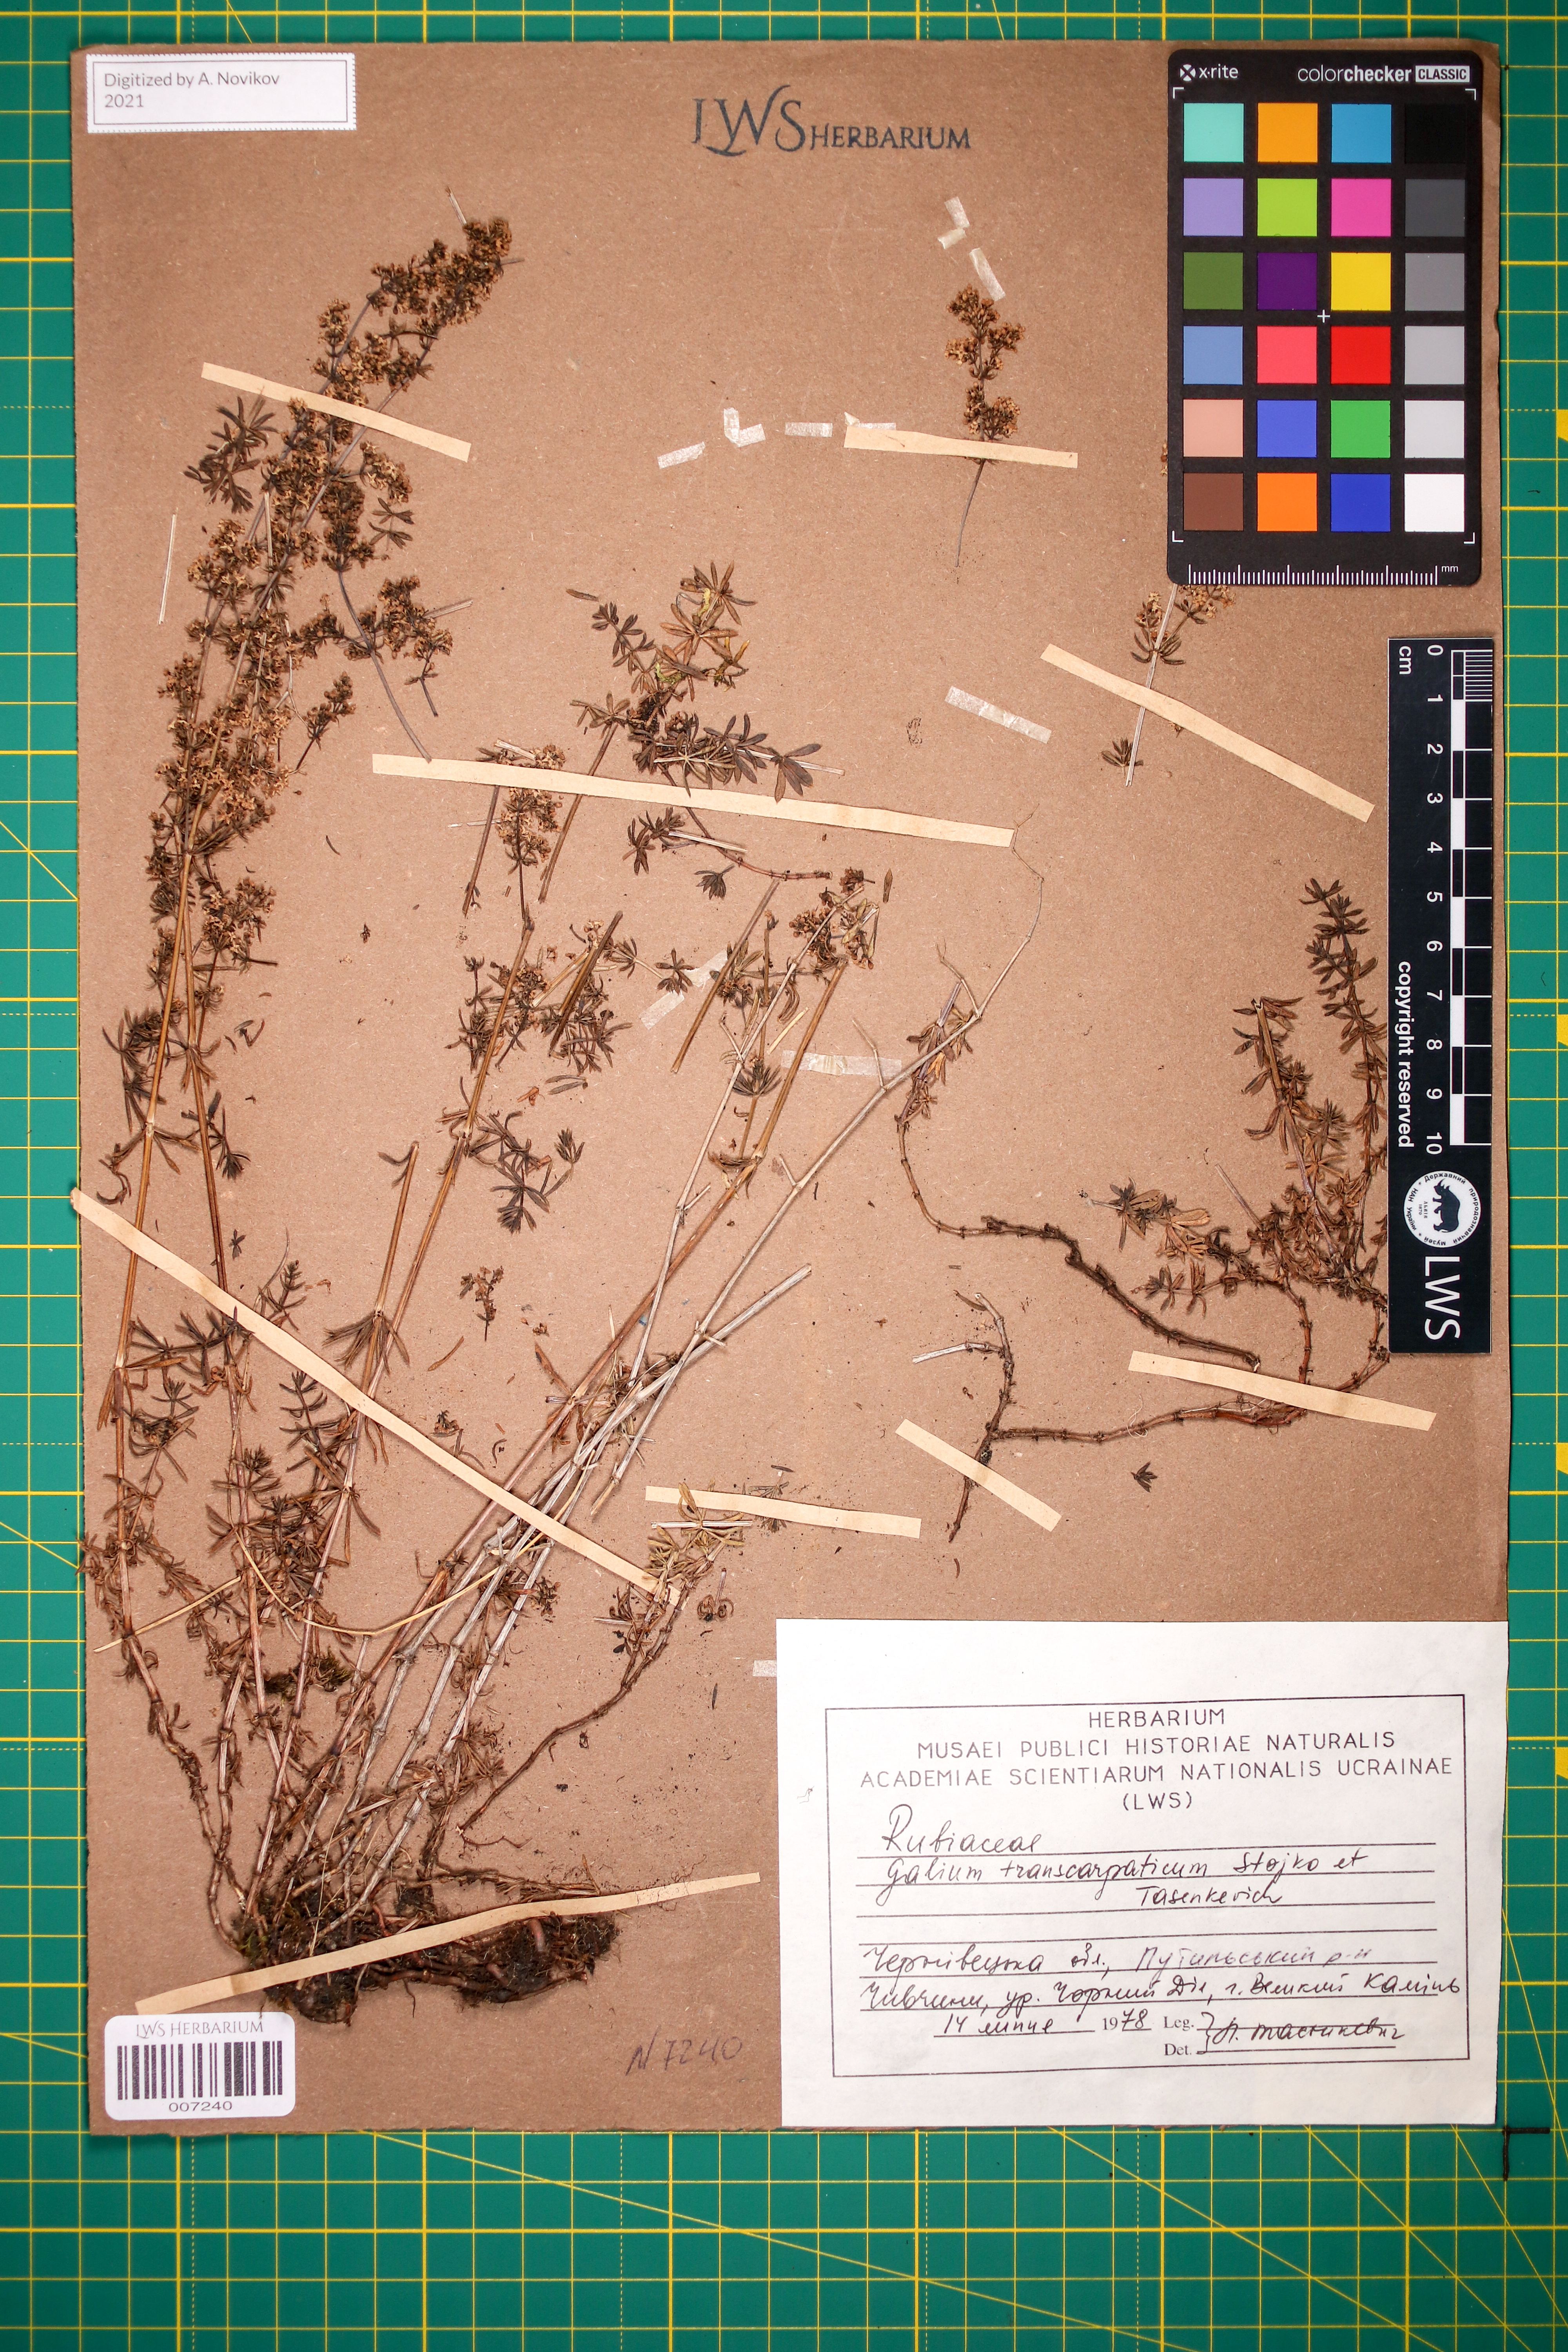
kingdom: Plantae
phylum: Tracheophyta
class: Magnoliopsida
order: Gentianales
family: Rubiaceae
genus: Galium
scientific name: Galium transcarpaticum
